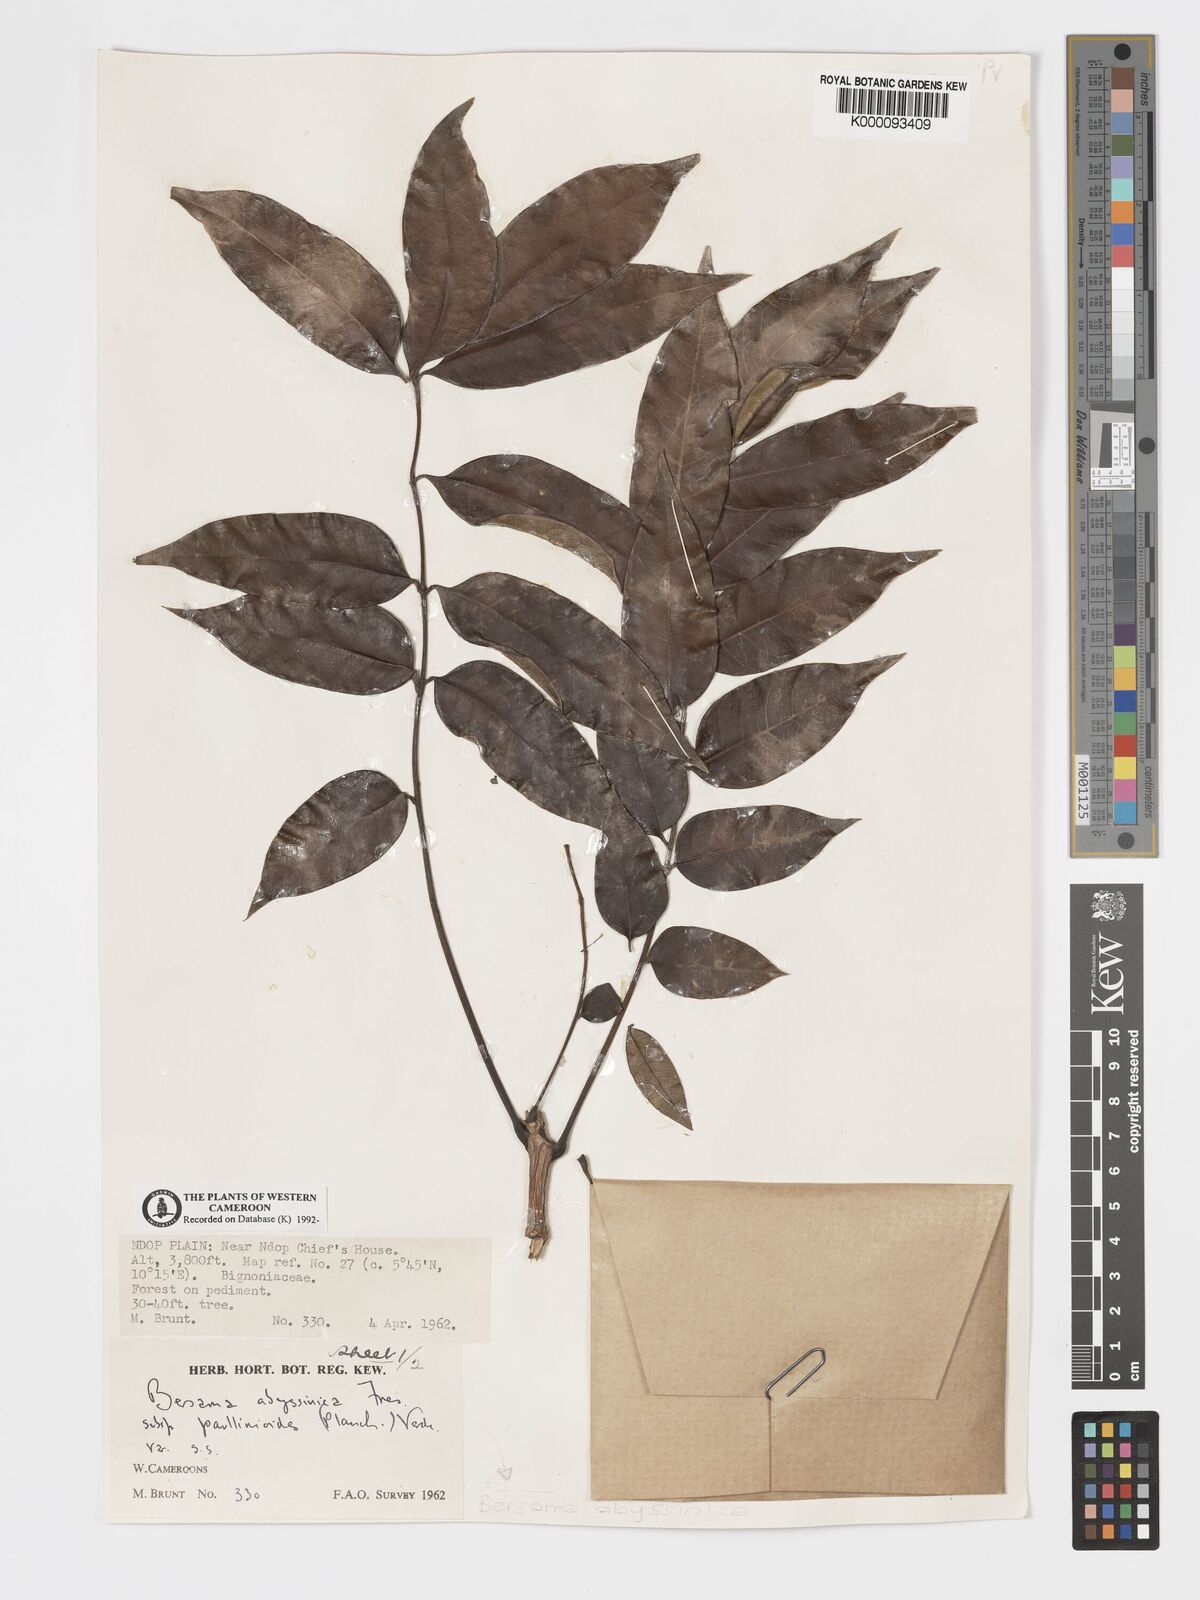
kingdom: Plantae
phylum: Tracheophyta
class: Magnoliopsida
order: Geraniales
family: Melianthaceae
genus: Bersama
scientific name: Bersama
